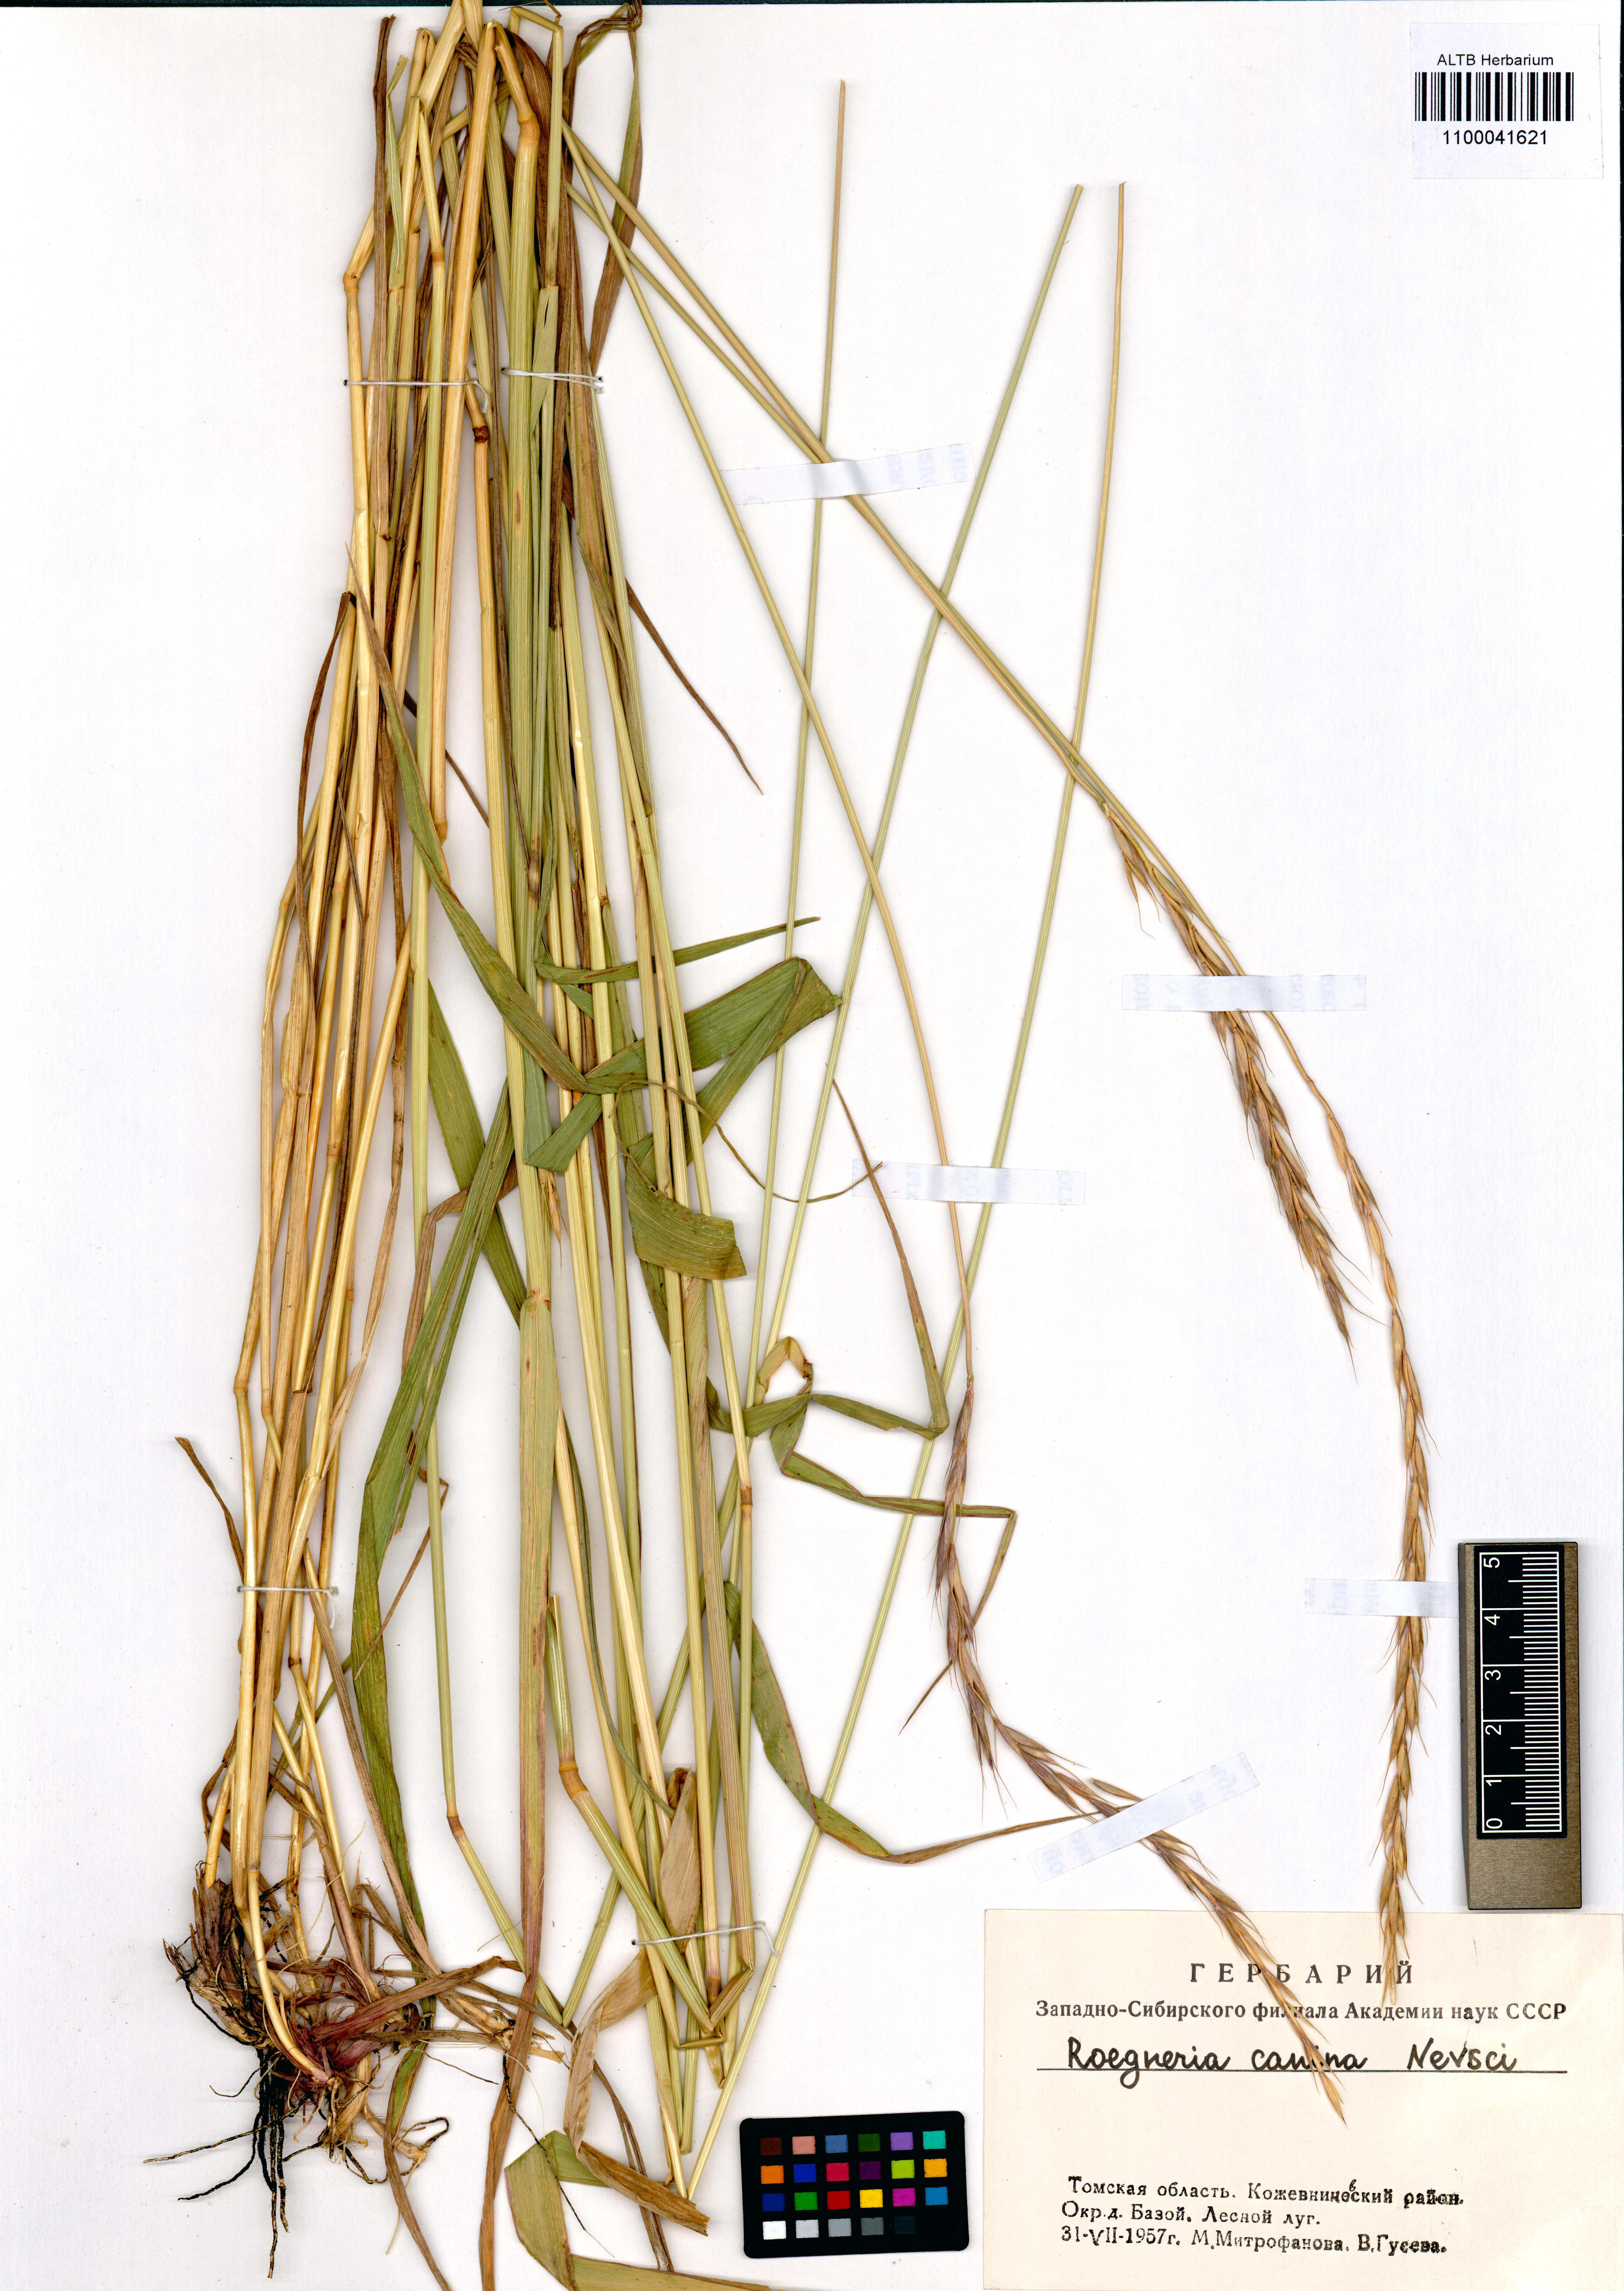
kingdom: Plantae
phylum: Tracheophyta
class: Liliopsida
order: Poales
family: Poaceae
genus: Elymus
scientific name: Elymus caninus
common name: Bearded couch
